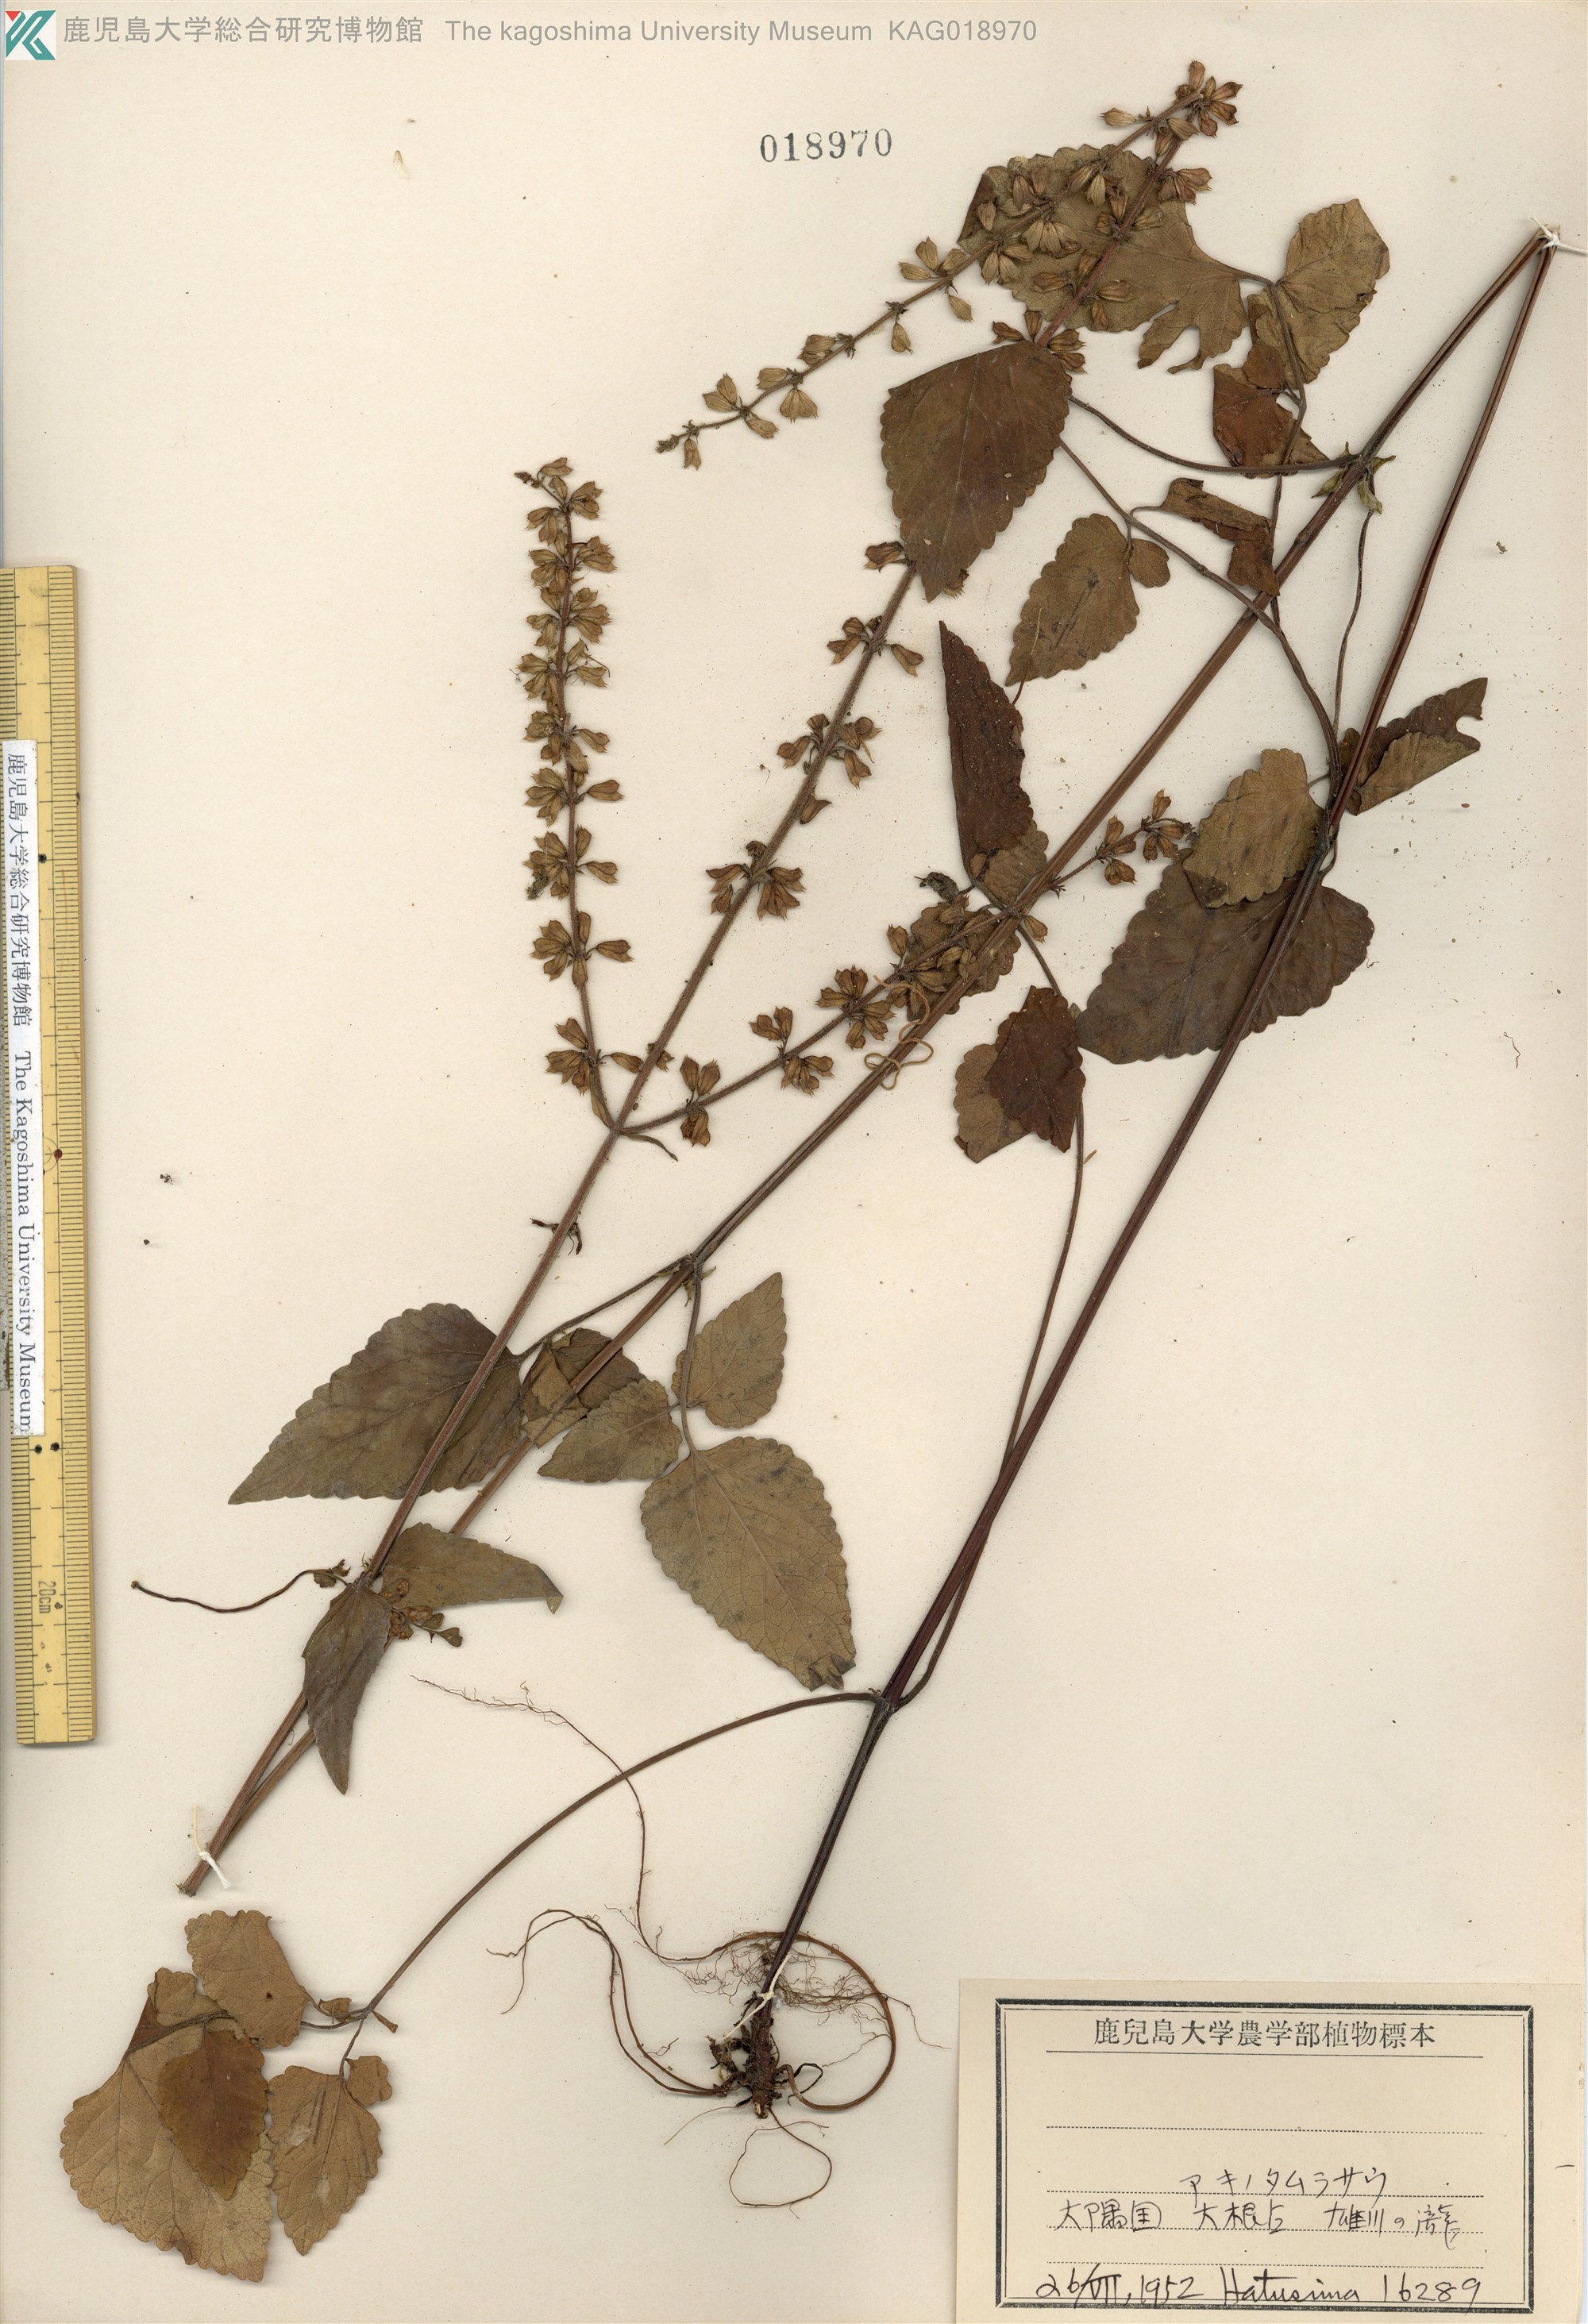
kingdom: Plantae
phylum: Tracheophyta
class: Magnoliopsida
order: Lamiales
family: Lamiaceae
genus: Salvia
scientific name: Salvia japonica
